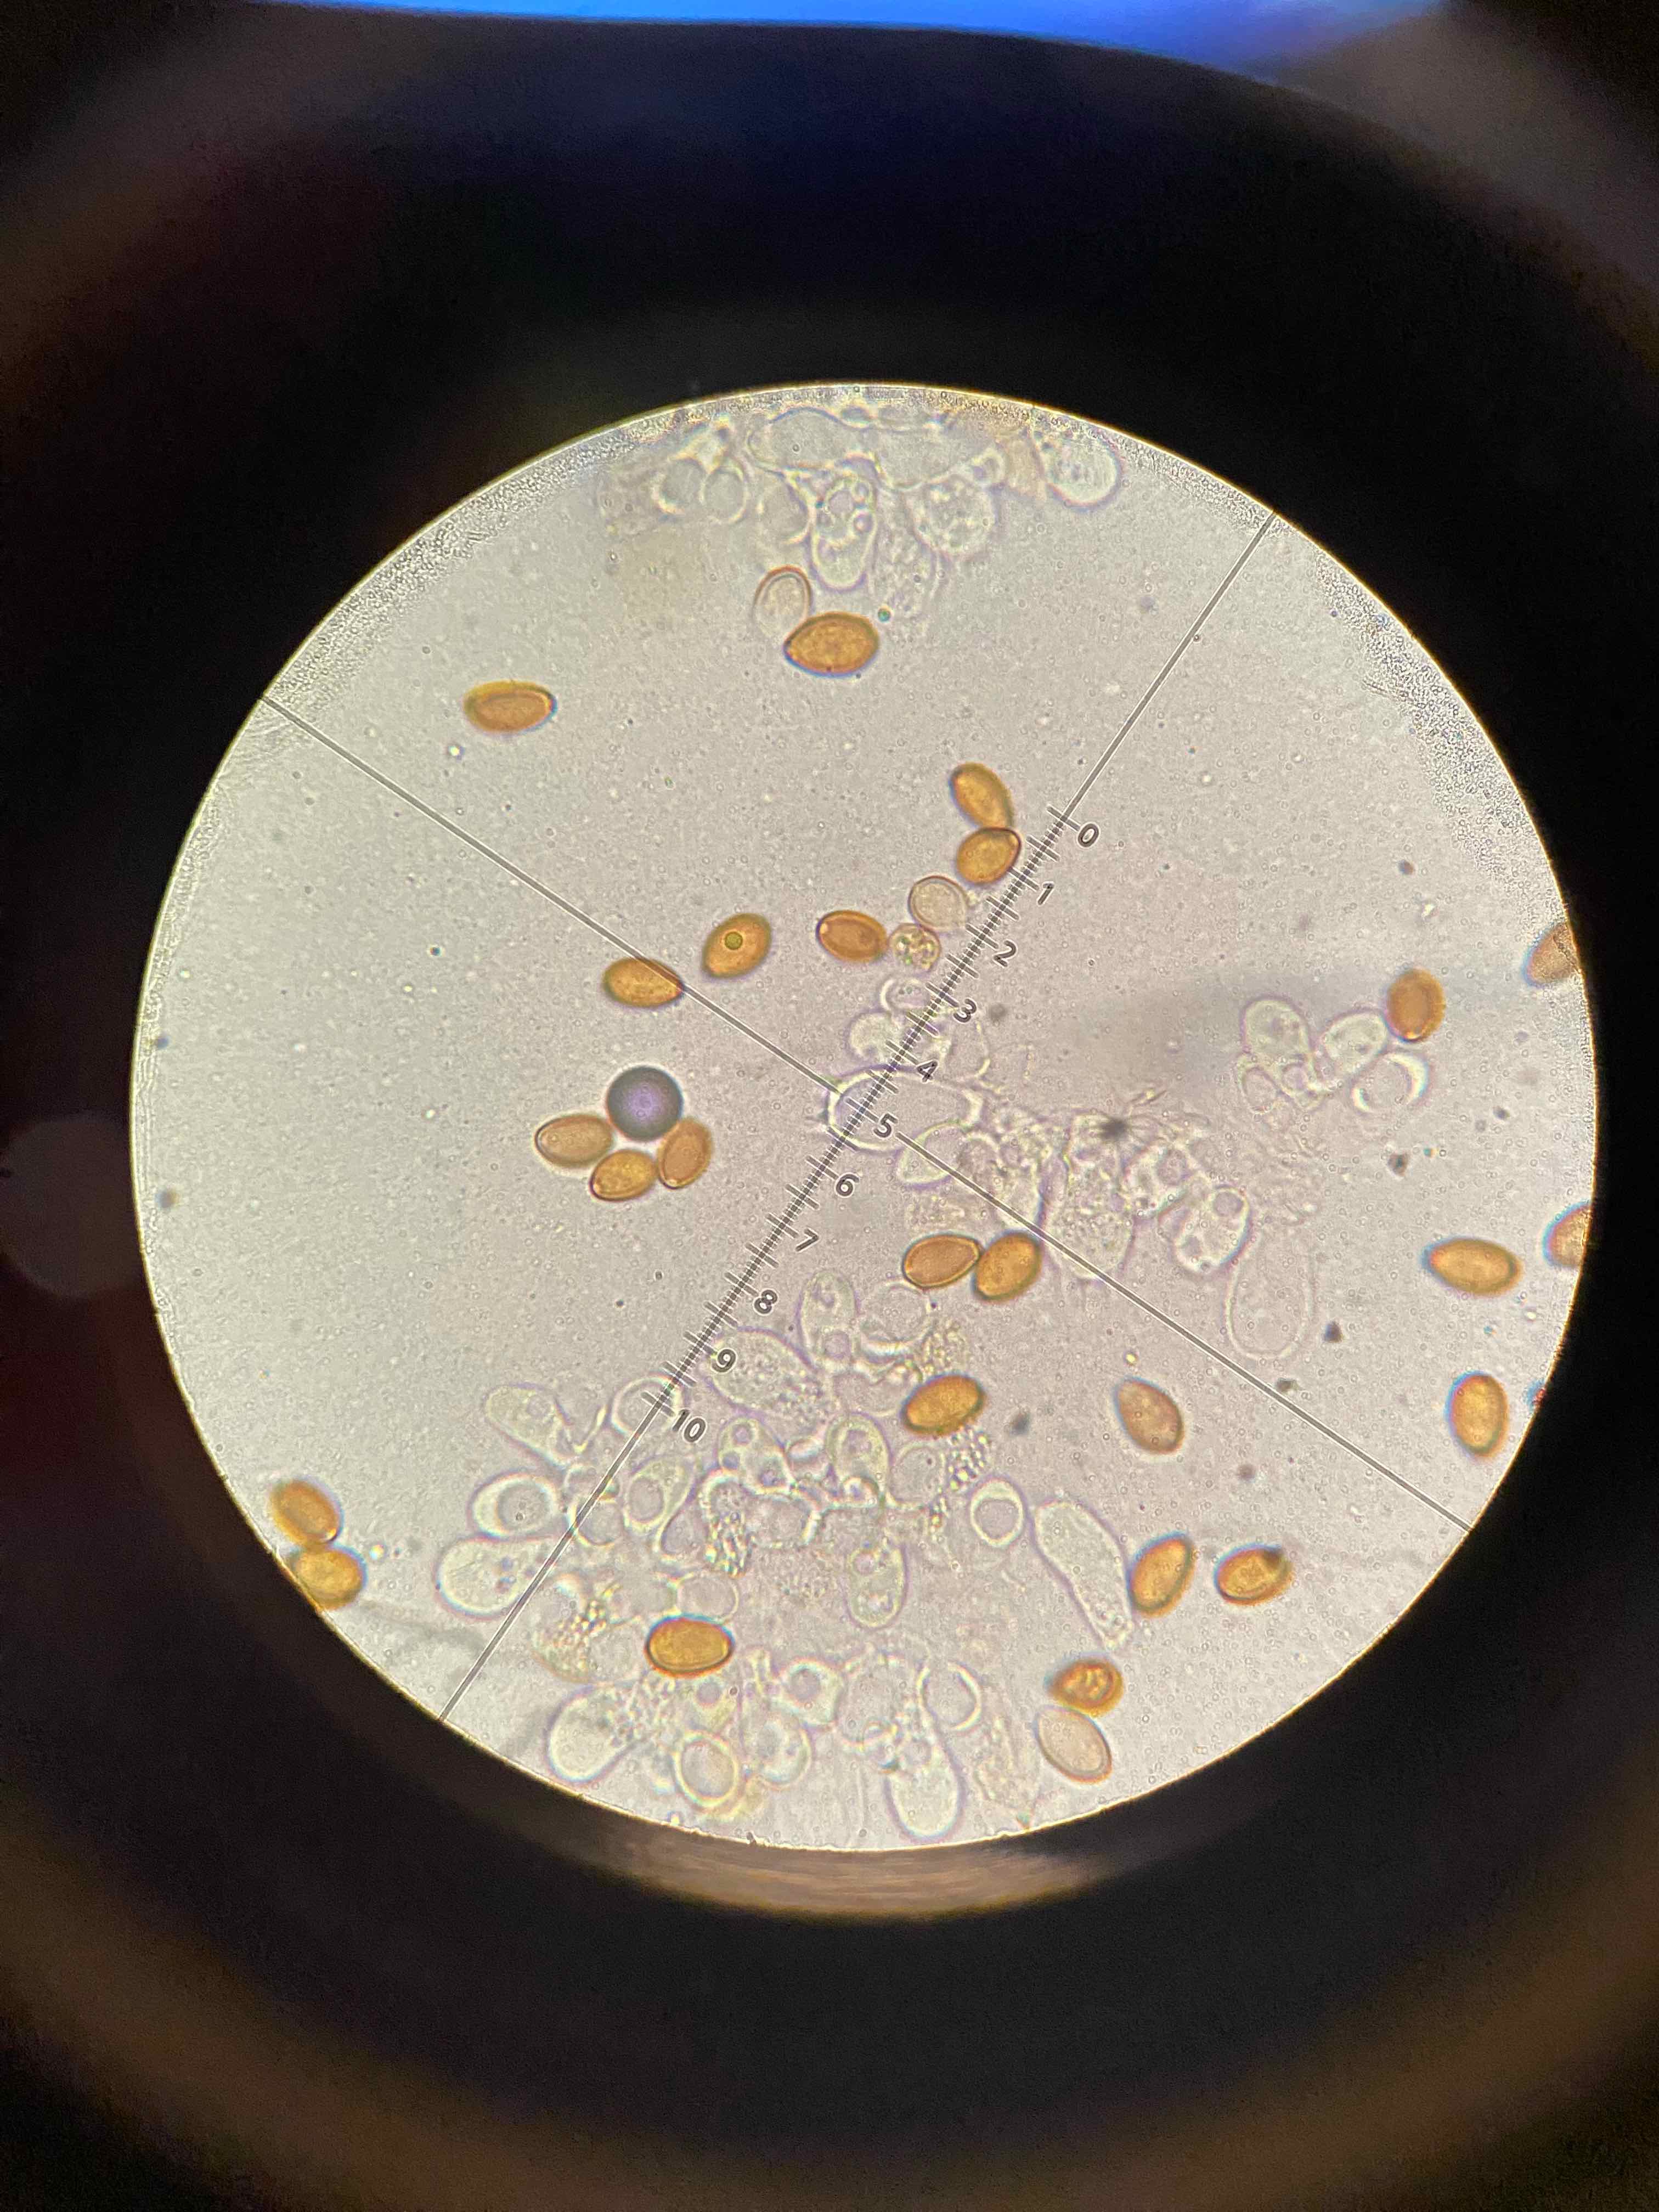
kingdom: Fungi
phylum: Basidiomycota
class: Agaricomycetes
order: Agaricales
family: Bolbitiaceae
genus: Conocybe
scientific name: Conocybe
